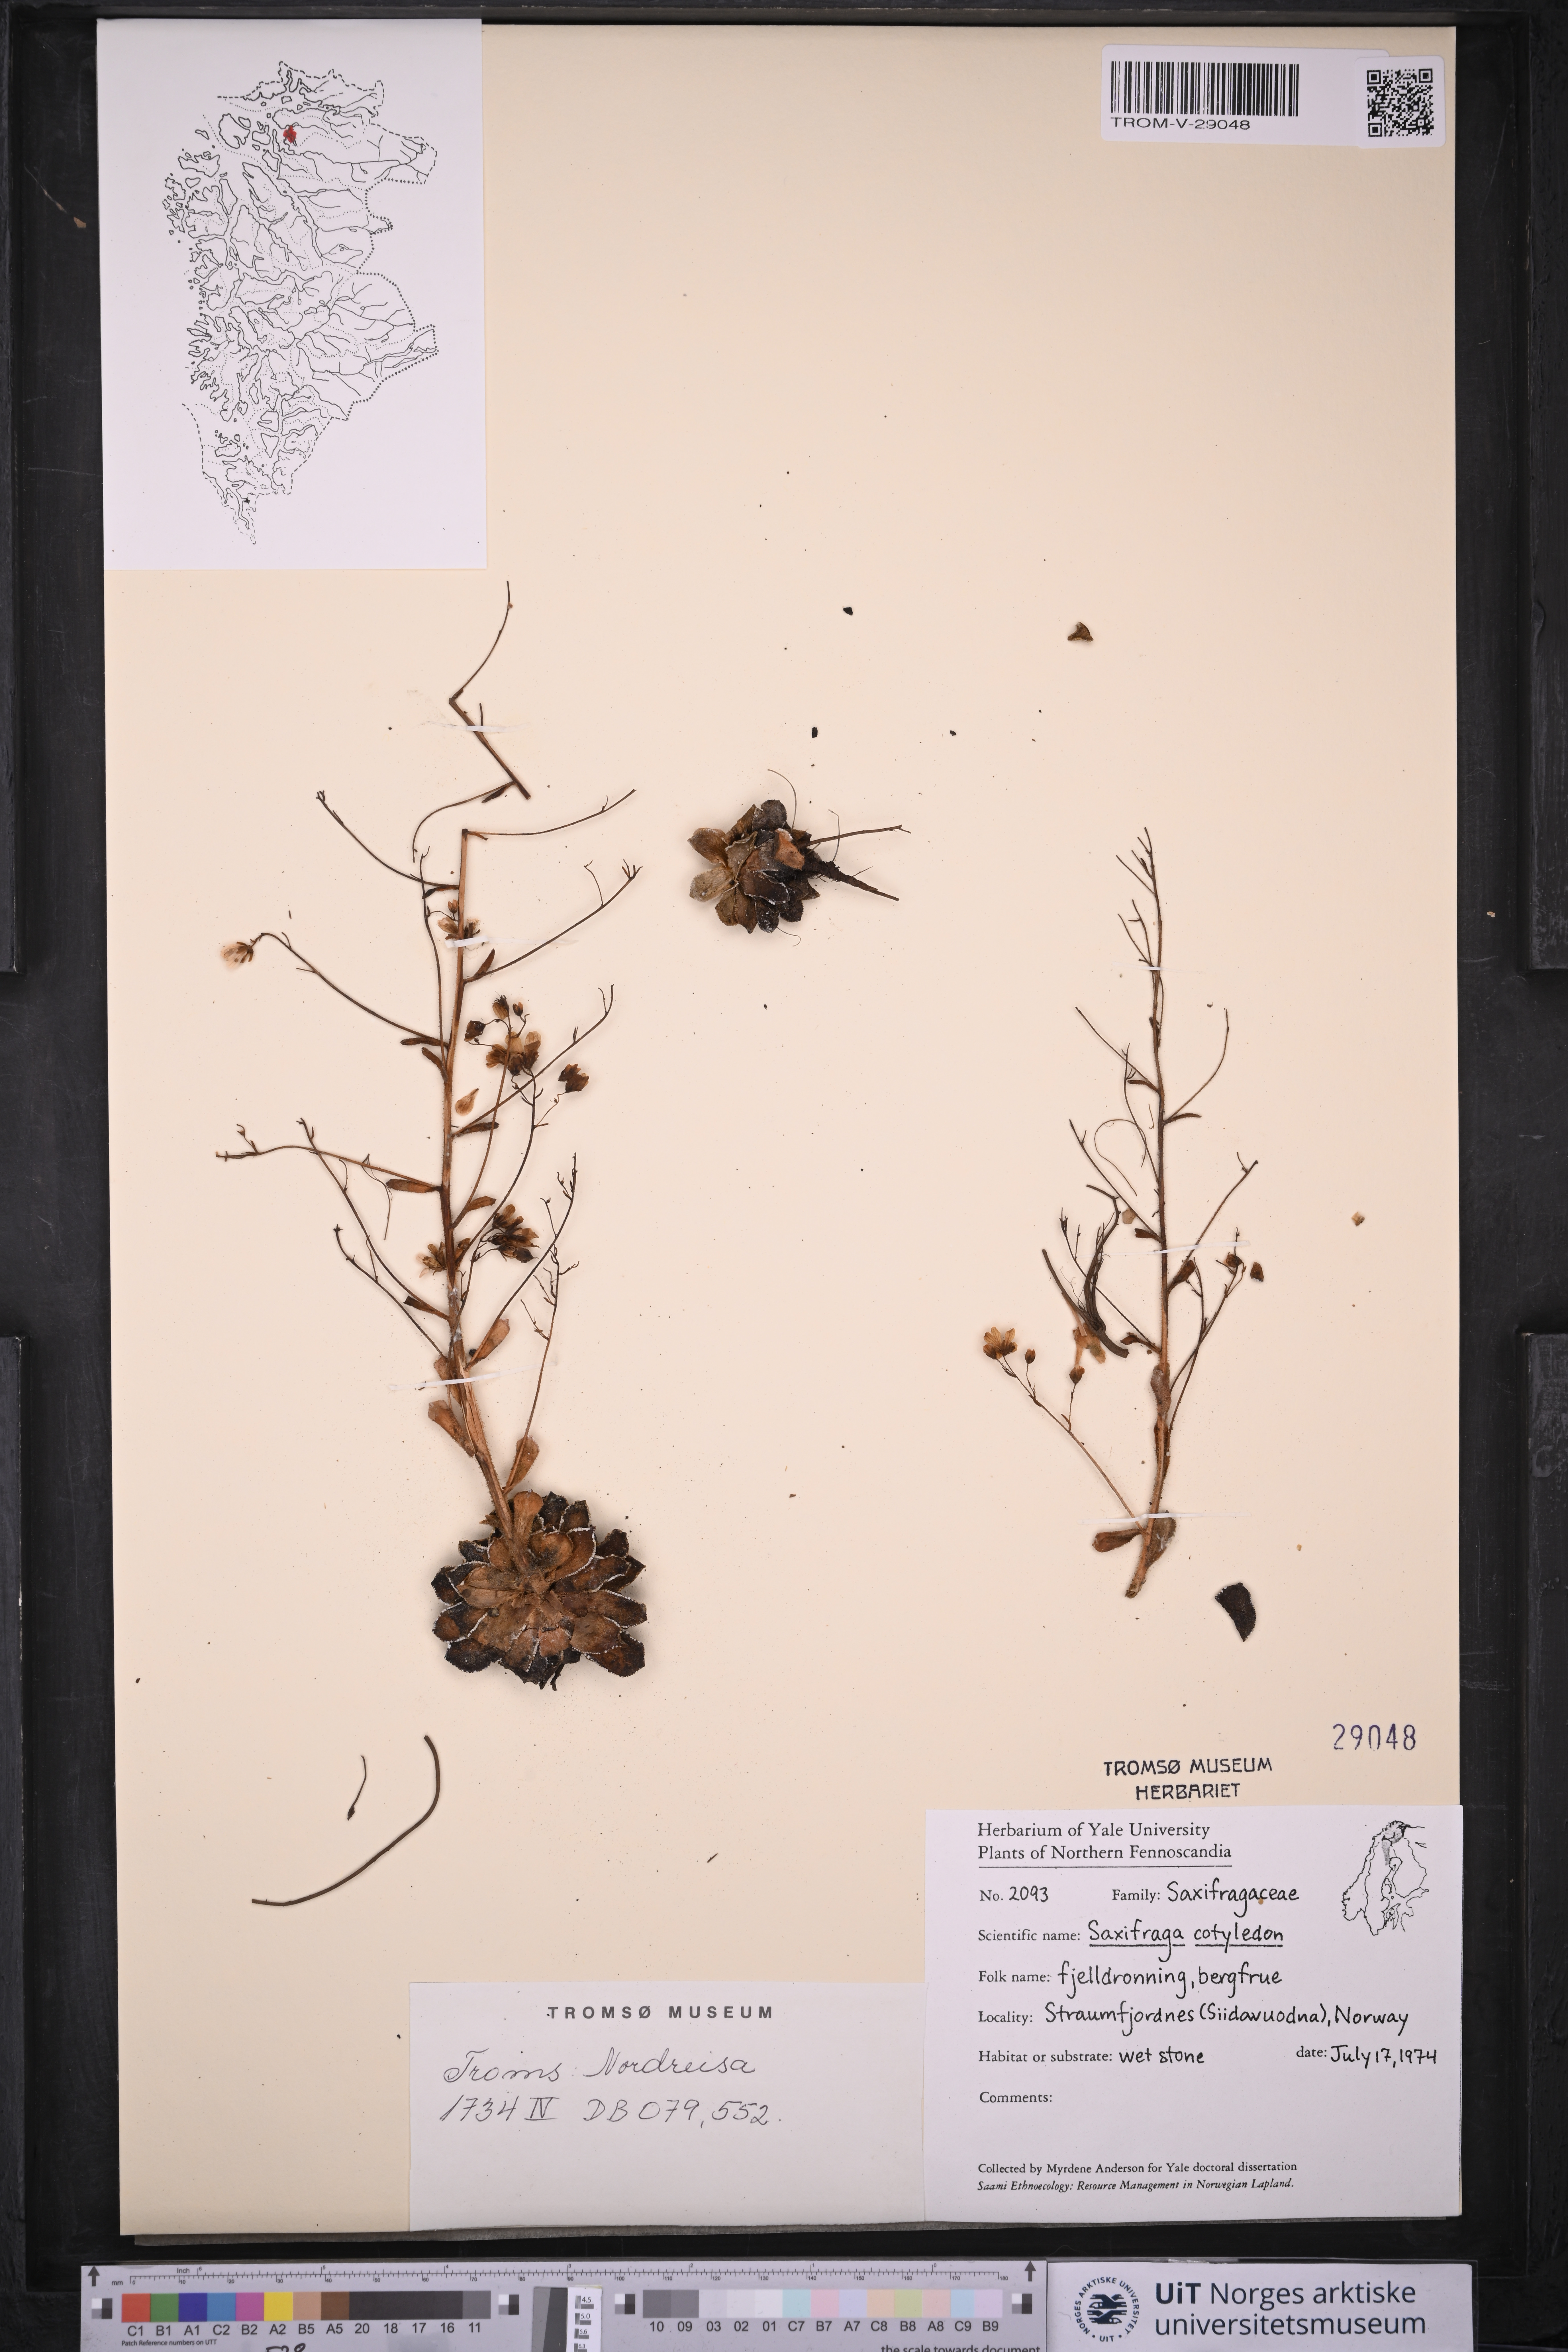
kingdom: Plantae
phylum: Tracheophyta
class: Magnoliopsida
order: Saxifragales
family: Saxifragaceae
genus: Saxifraga
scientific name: Saxifraga cotyledon
